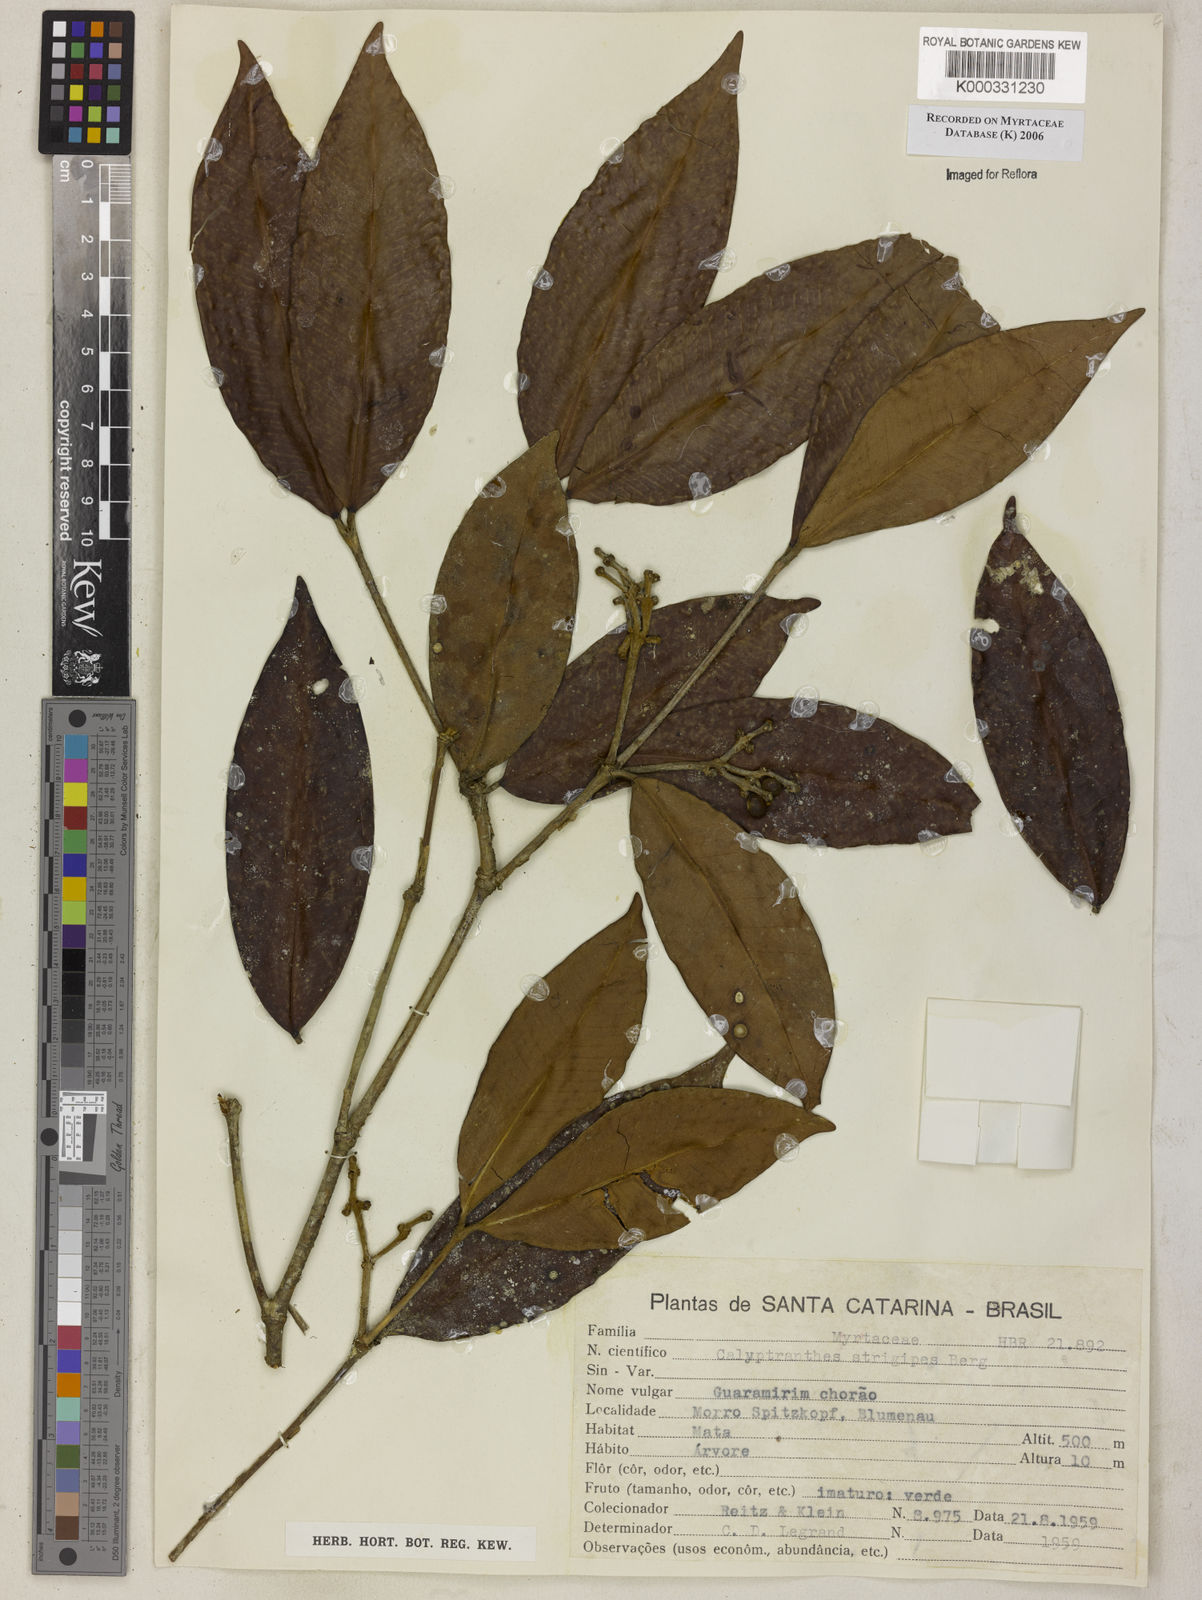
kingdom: Plantae
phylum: Tracheophyta
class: Magnoliopsida
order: Myrtales
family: Myrtaceae
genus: Myrcia
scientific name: Myrcia strigosa
